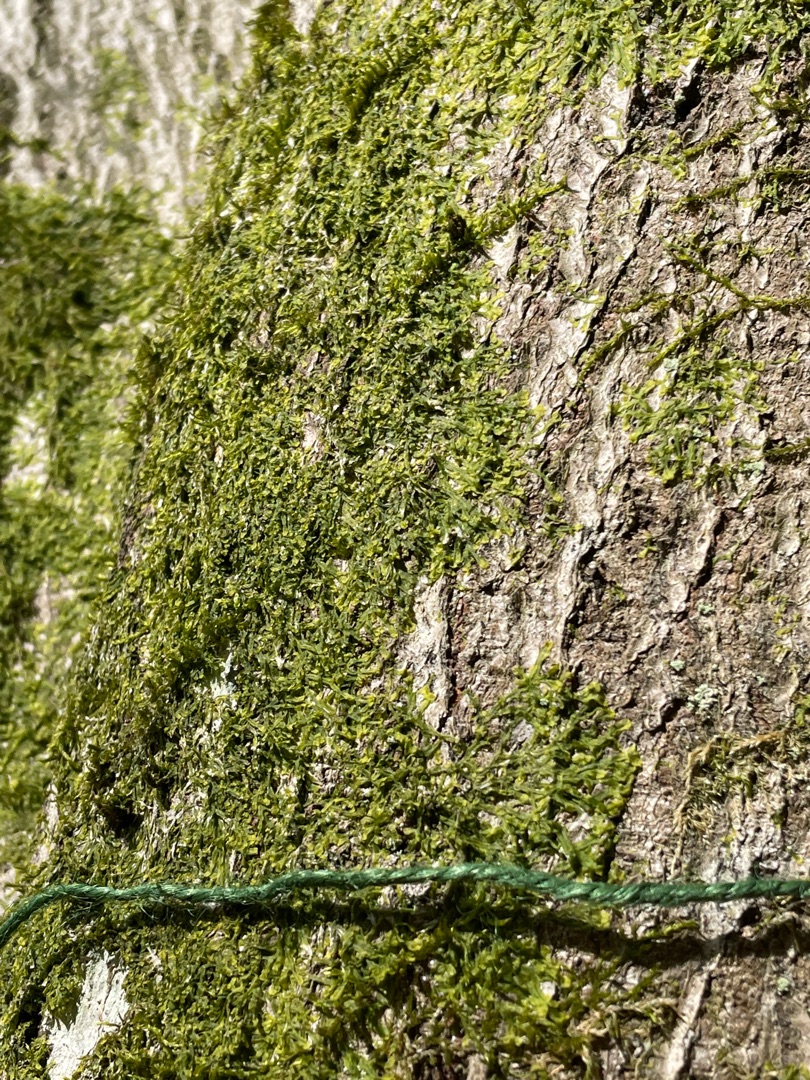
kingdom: Plantae
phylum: Marchantiophyta
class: Jungermanniopsida
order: Metzgeriales
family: Metzgeriaceae
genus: Metzgeria
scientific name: Metzgeria furcata
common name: Almindelig gaffelløv
